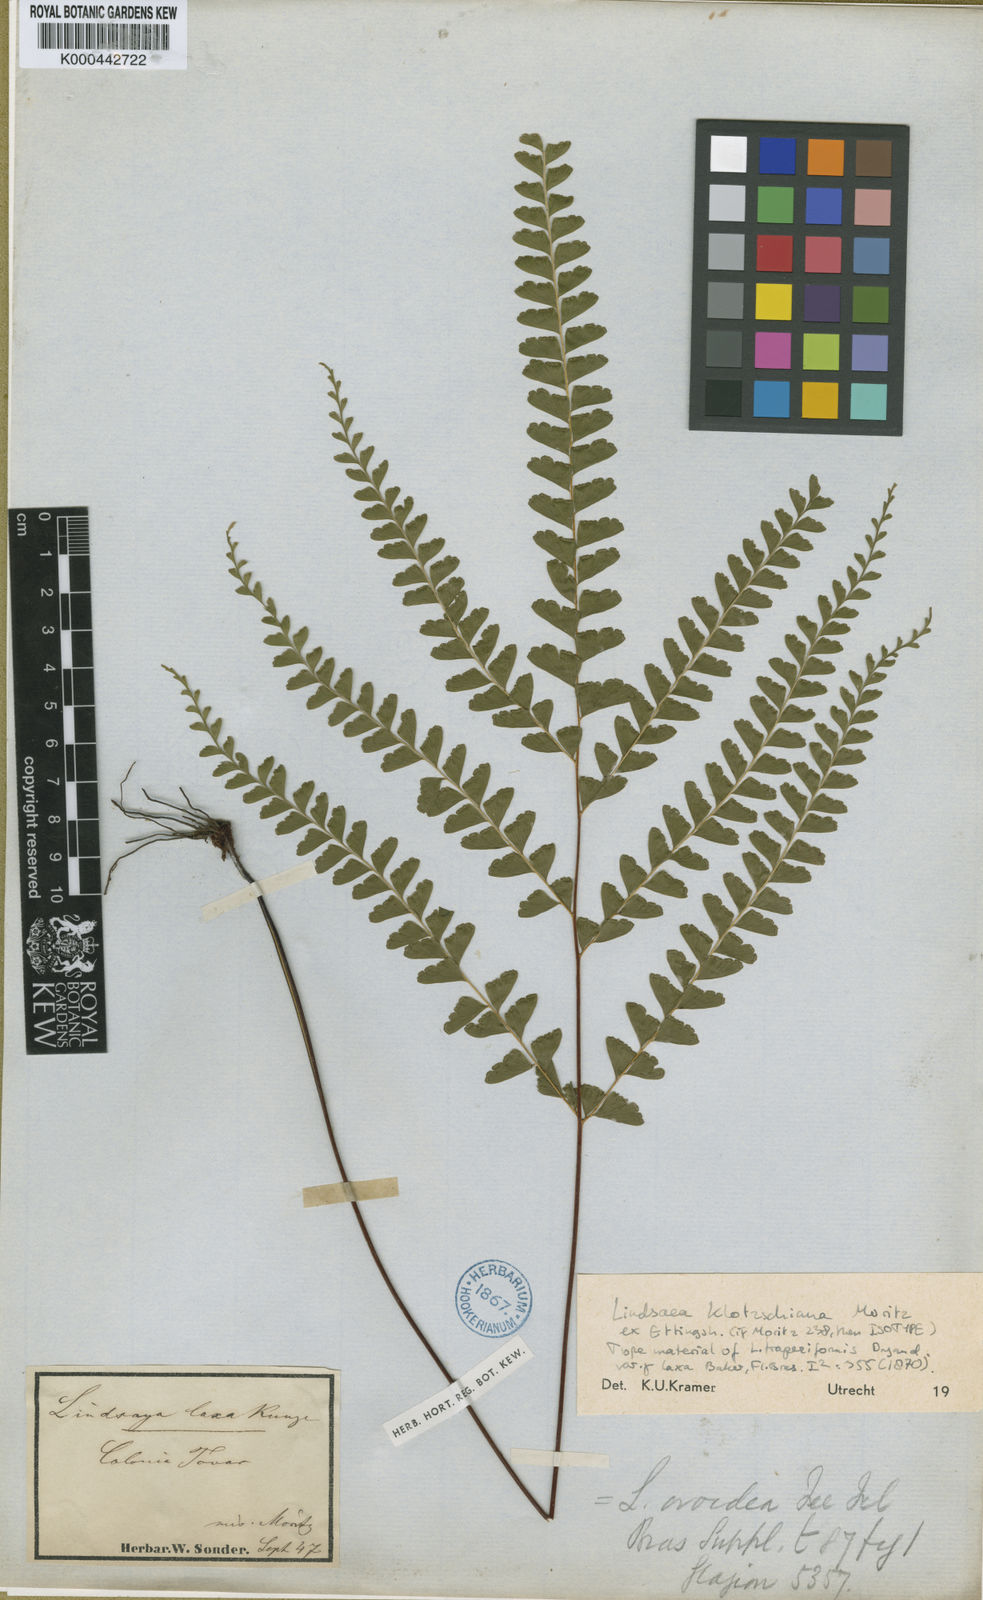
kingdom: Plantae
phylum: Tracheophyta
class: Polypodiopsida
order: Polypodiales
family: Lindsaeaceae
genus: Lindsaea
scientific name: Lindsaea feei
